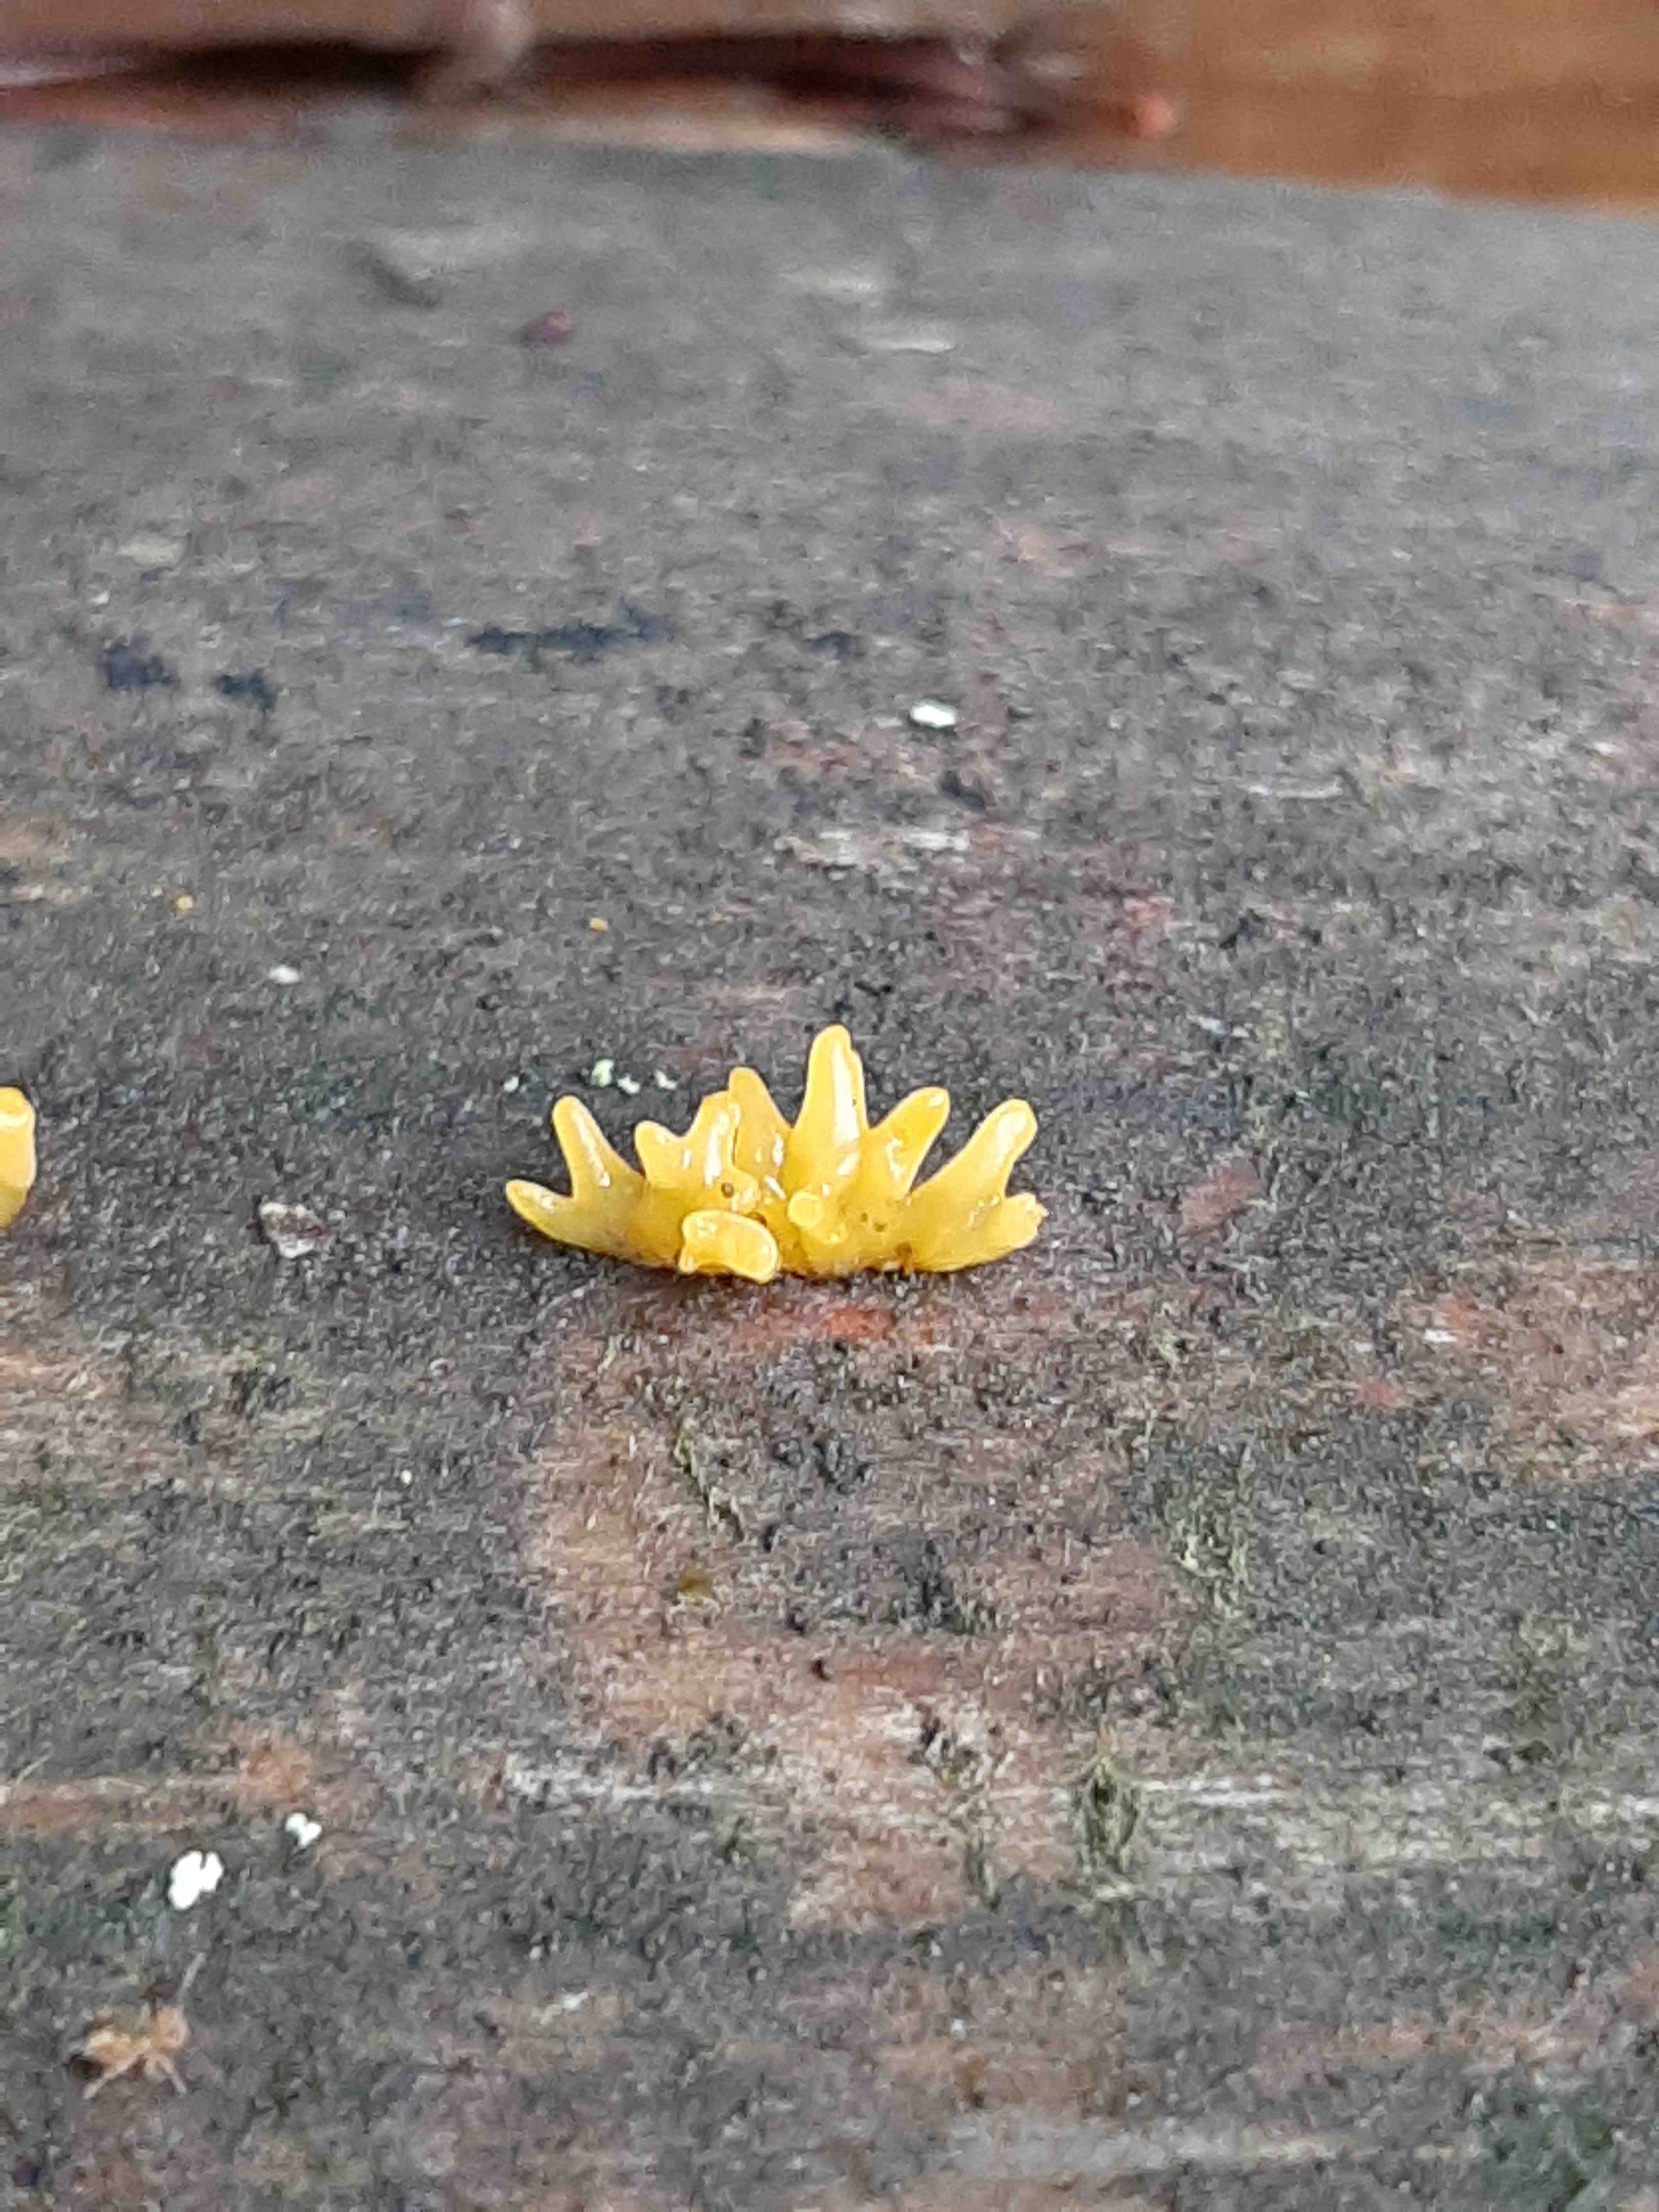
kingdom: Fungi
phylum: Basidiomycota
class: Dacrymycetes
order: Dacrymycetales
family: Dacrymycetaceae
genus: Calocera
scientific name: Calocera
